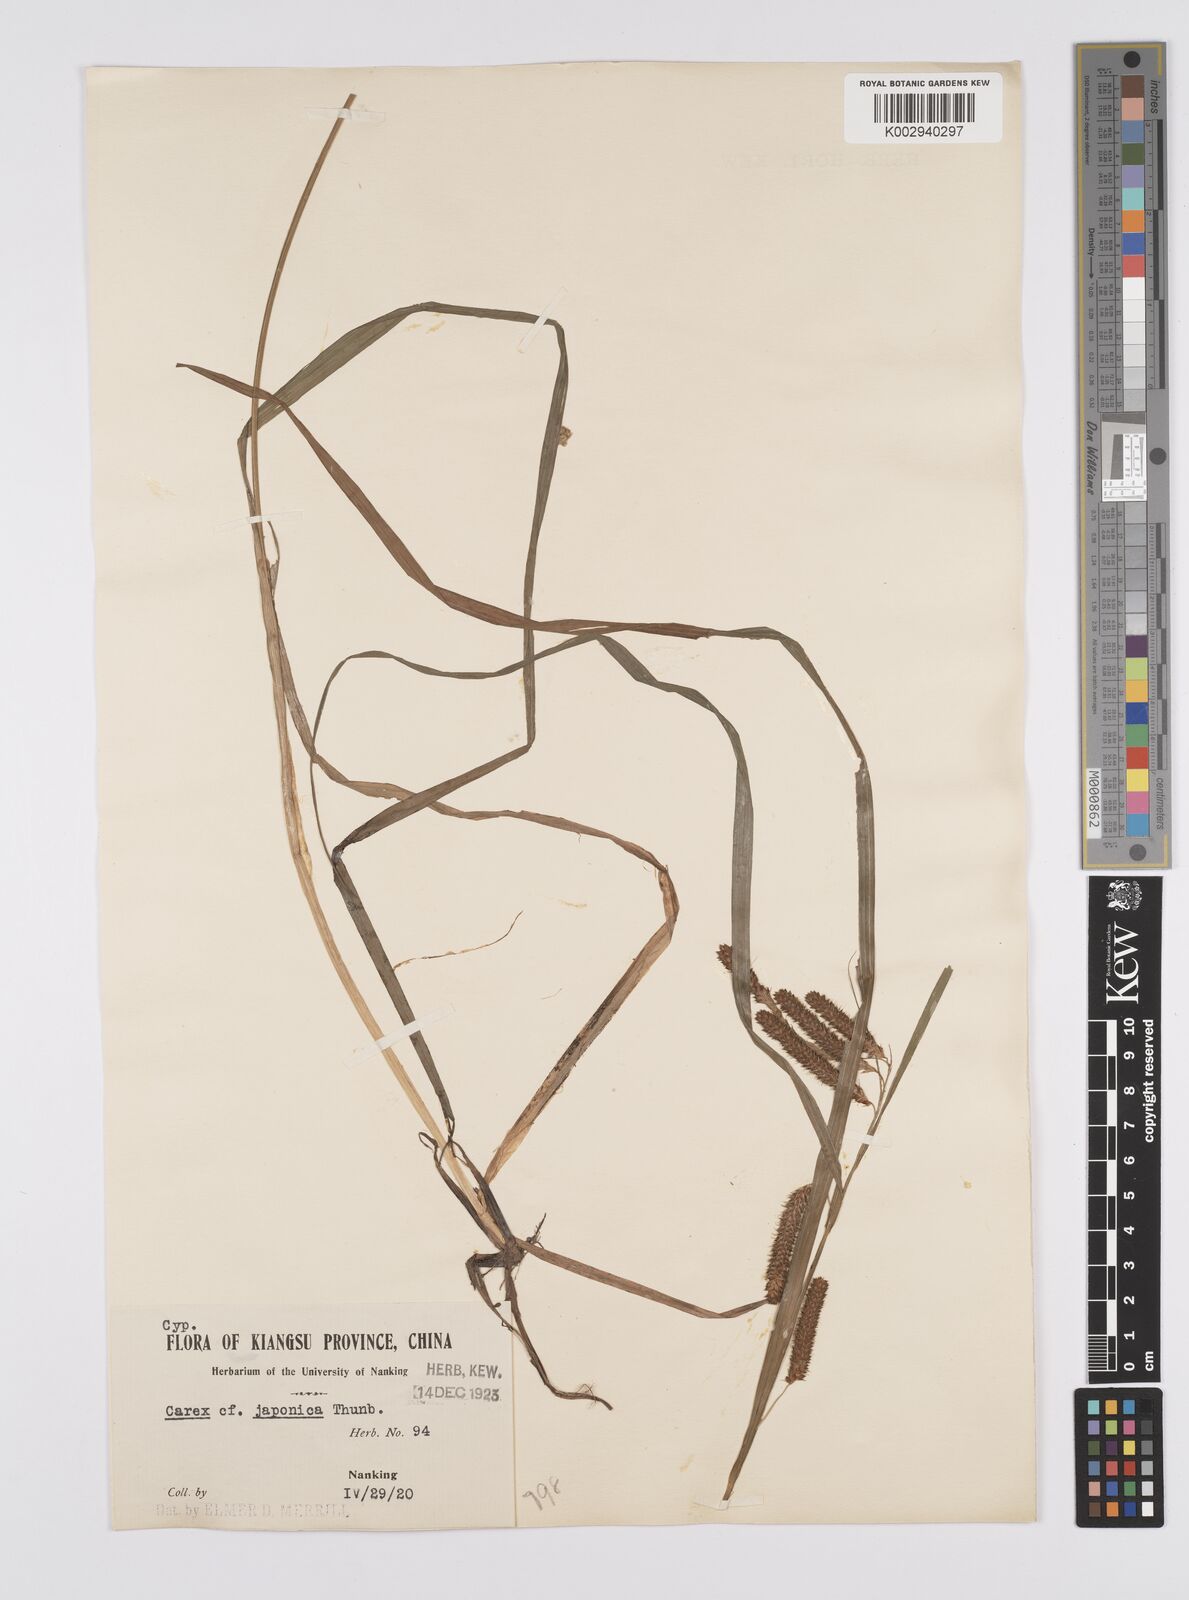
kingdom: Plantae
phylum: Tracheophyta
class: Liliopsida
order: Poales
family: Cyperaceae
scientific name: Cyperaceae
